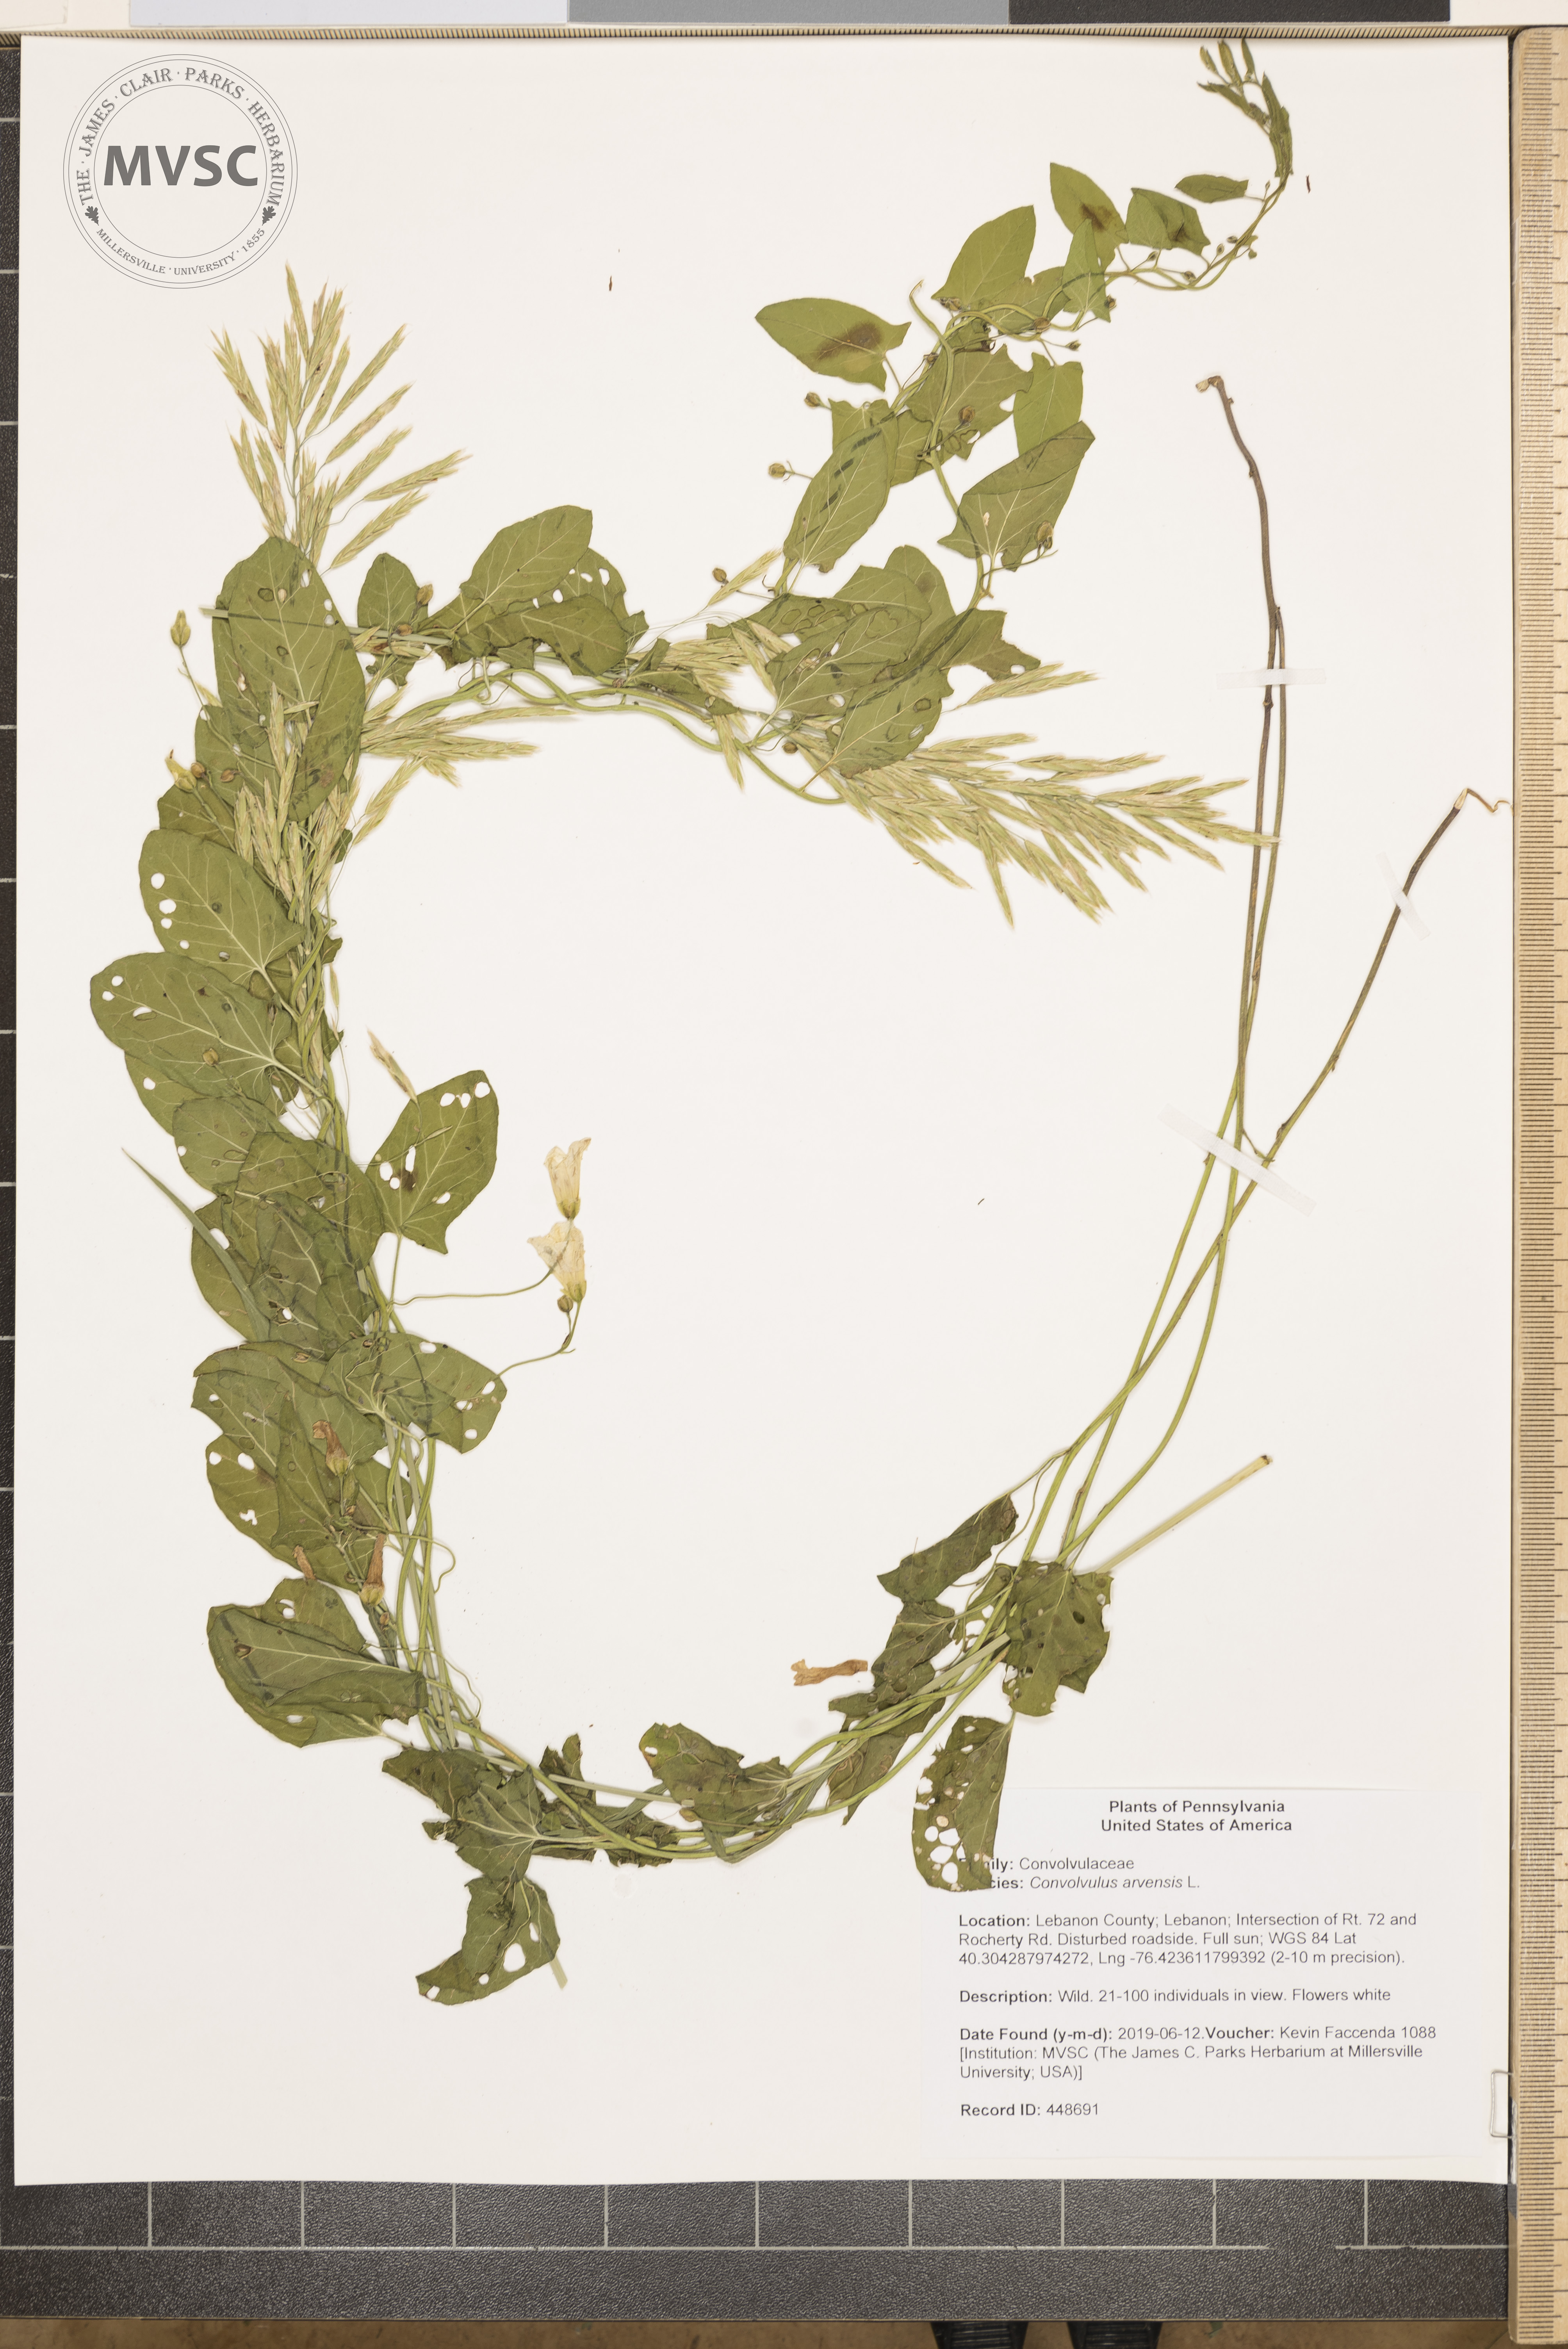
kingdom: Plantae
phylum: Tracheophyta
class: Magnoliopsida
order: Solanales
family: Convolvulaceae
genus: Convolvulus
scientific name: Convolvulus arvensis
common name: Field bindweed
